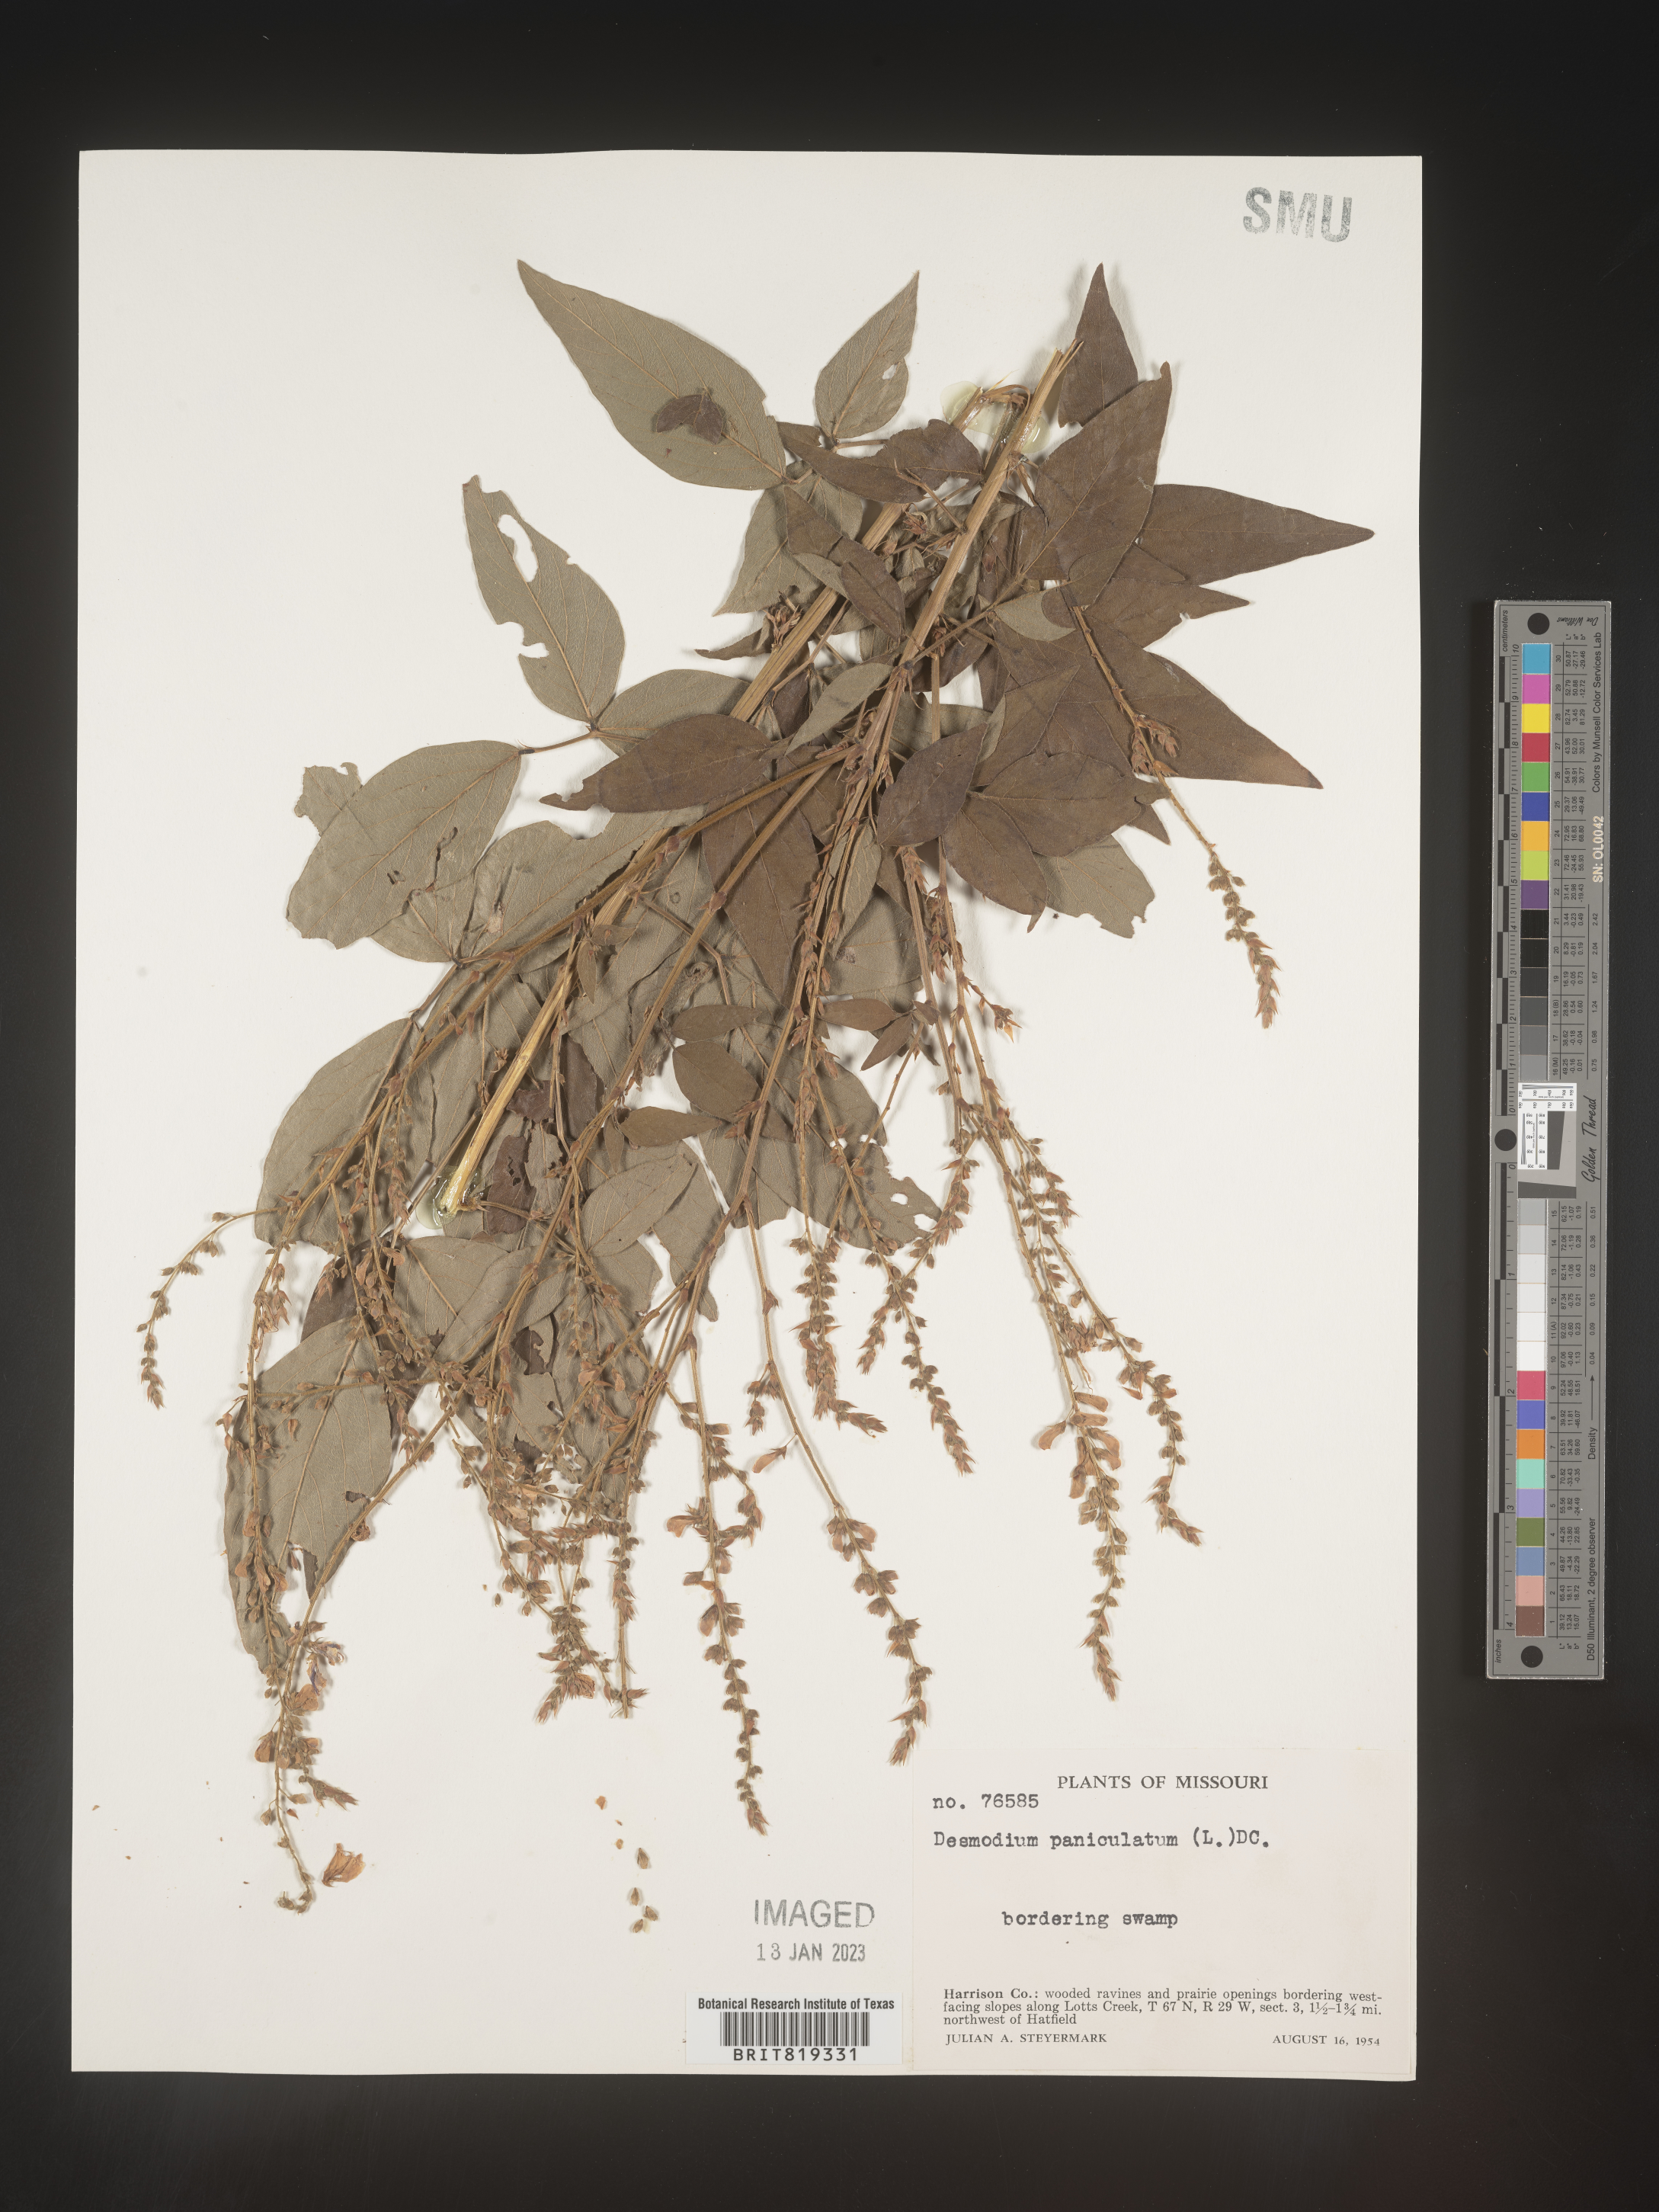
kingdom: Plantae
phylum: Tracheophyta
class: Magnoliopsida
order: Fabales
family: Fabaceae
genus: Desmodium
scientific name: Desmodium paniculatum
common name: Panicled tick-clover
